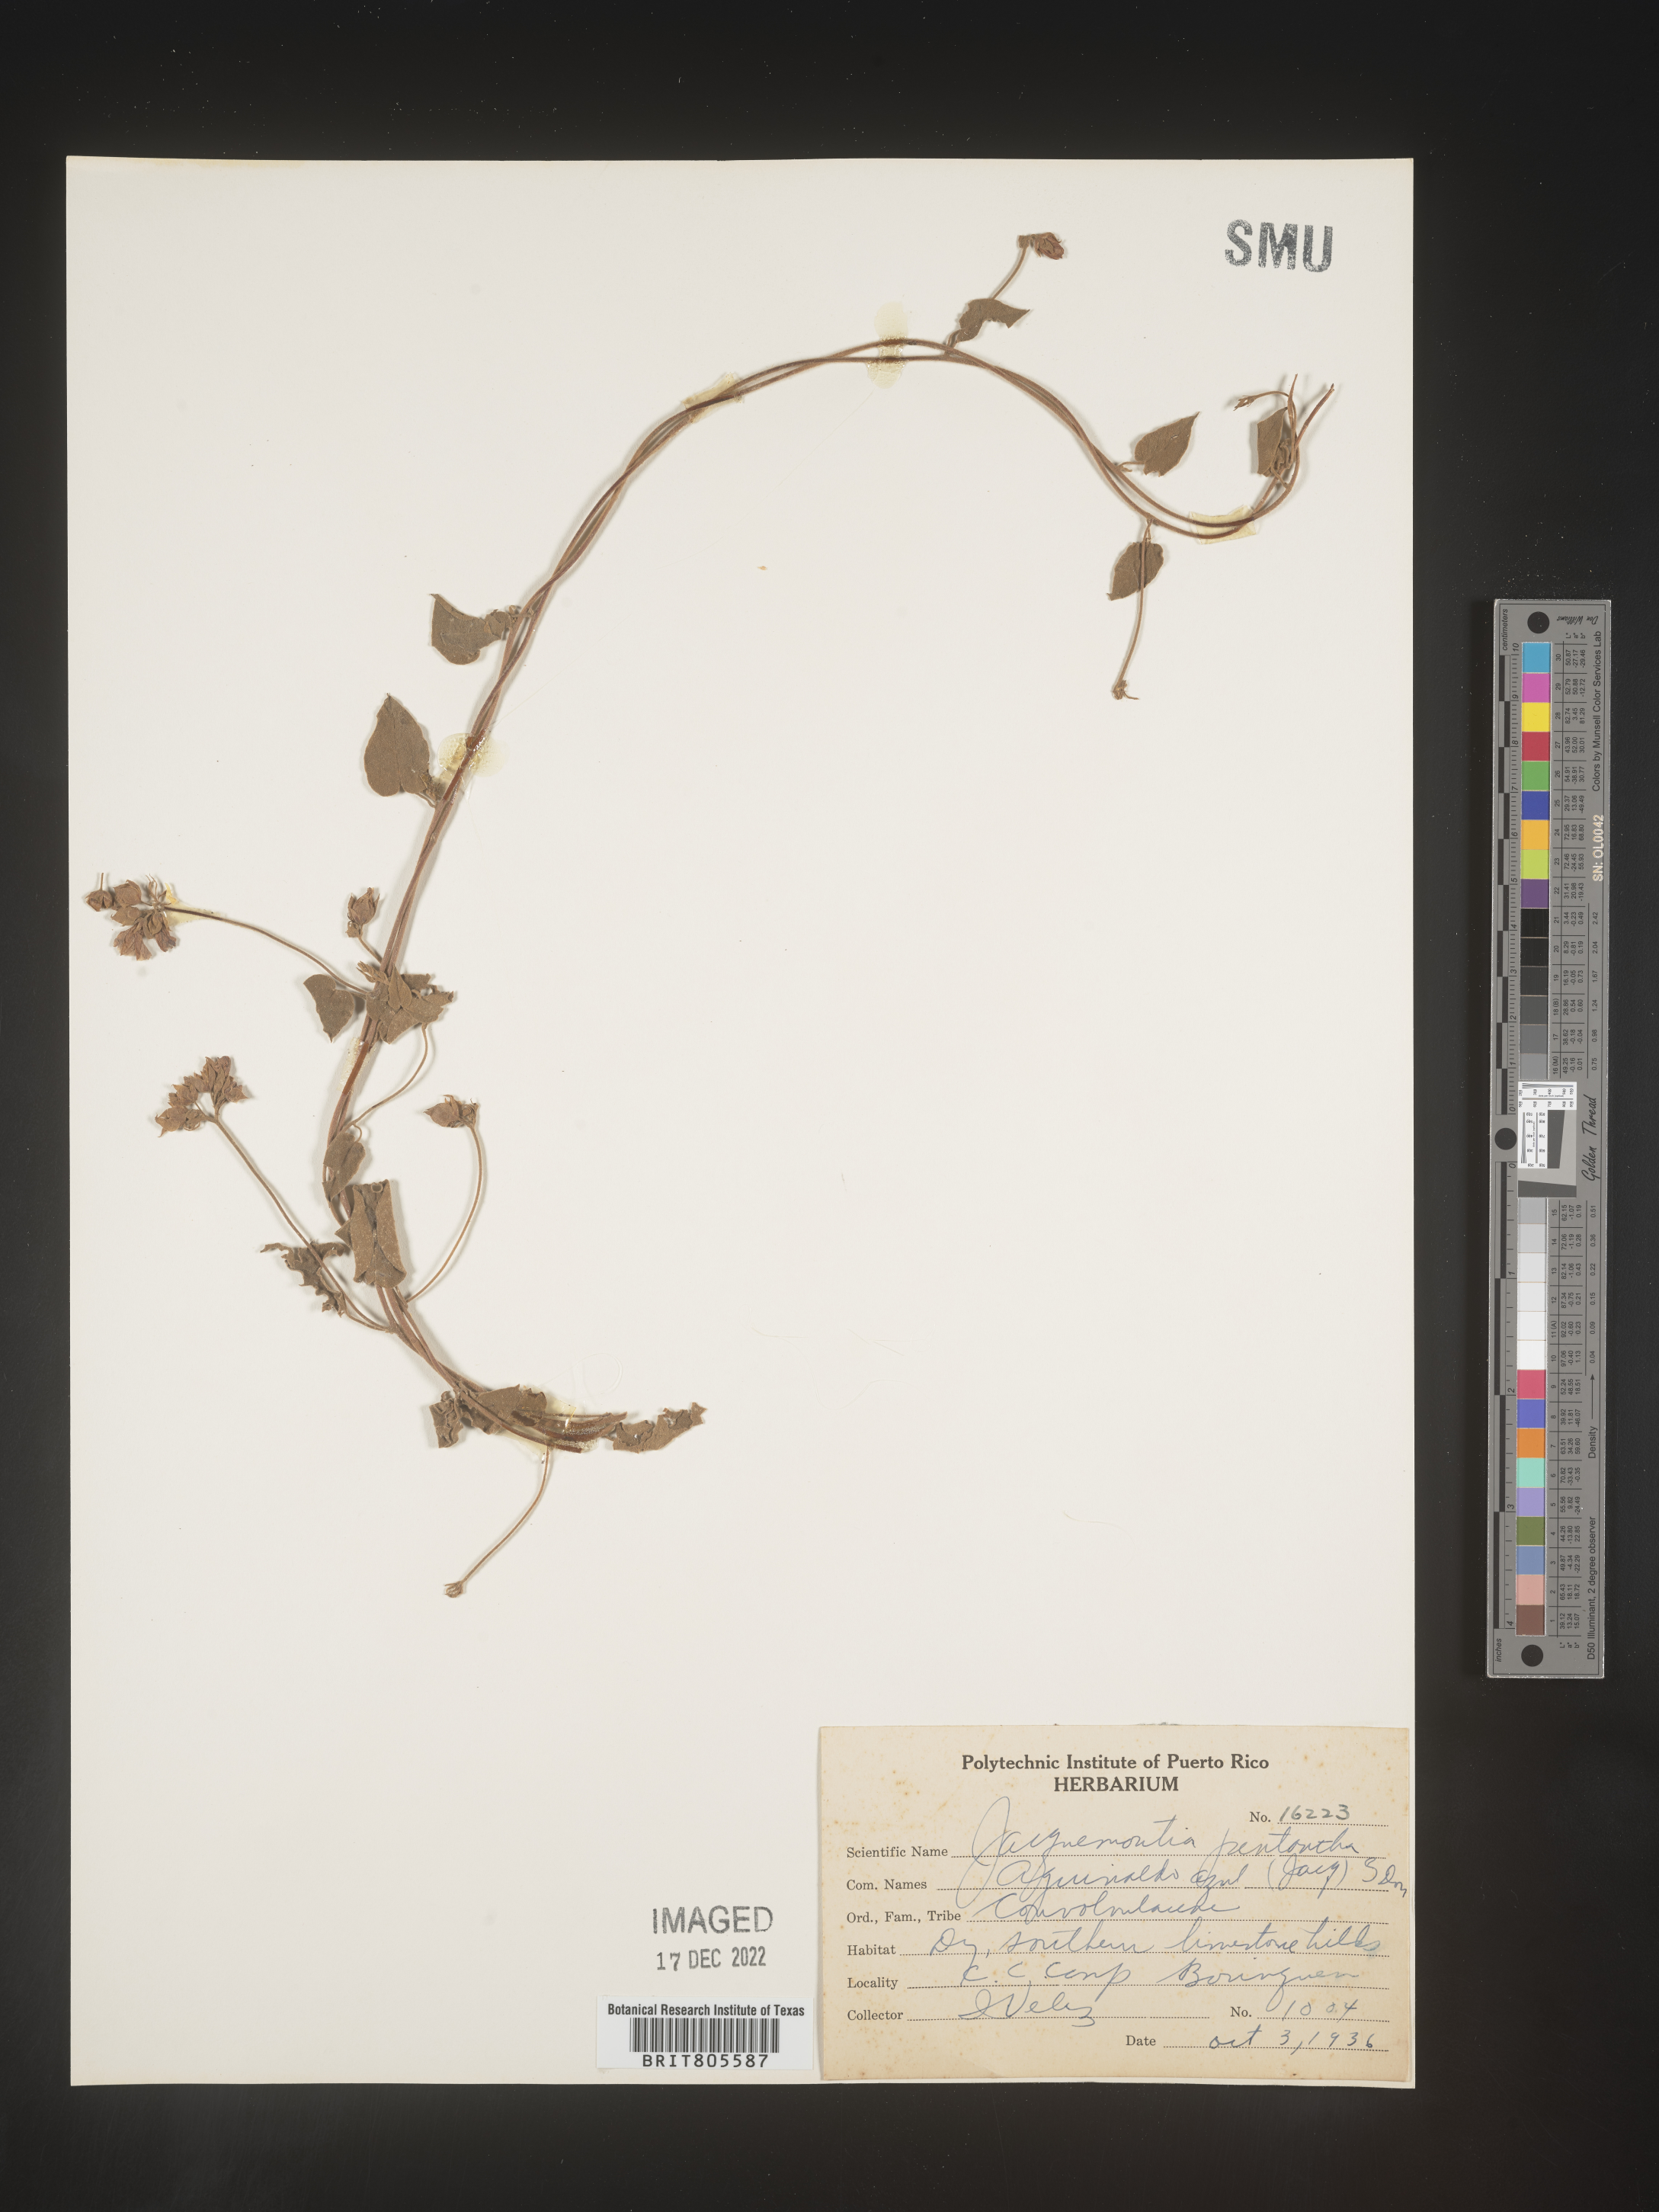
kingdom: Plantae
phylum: Tracheophyta
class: Magnoliopsida
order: Solanales
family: Convolvulaceae
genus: Jacquemontia
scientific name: Jacquemontia
